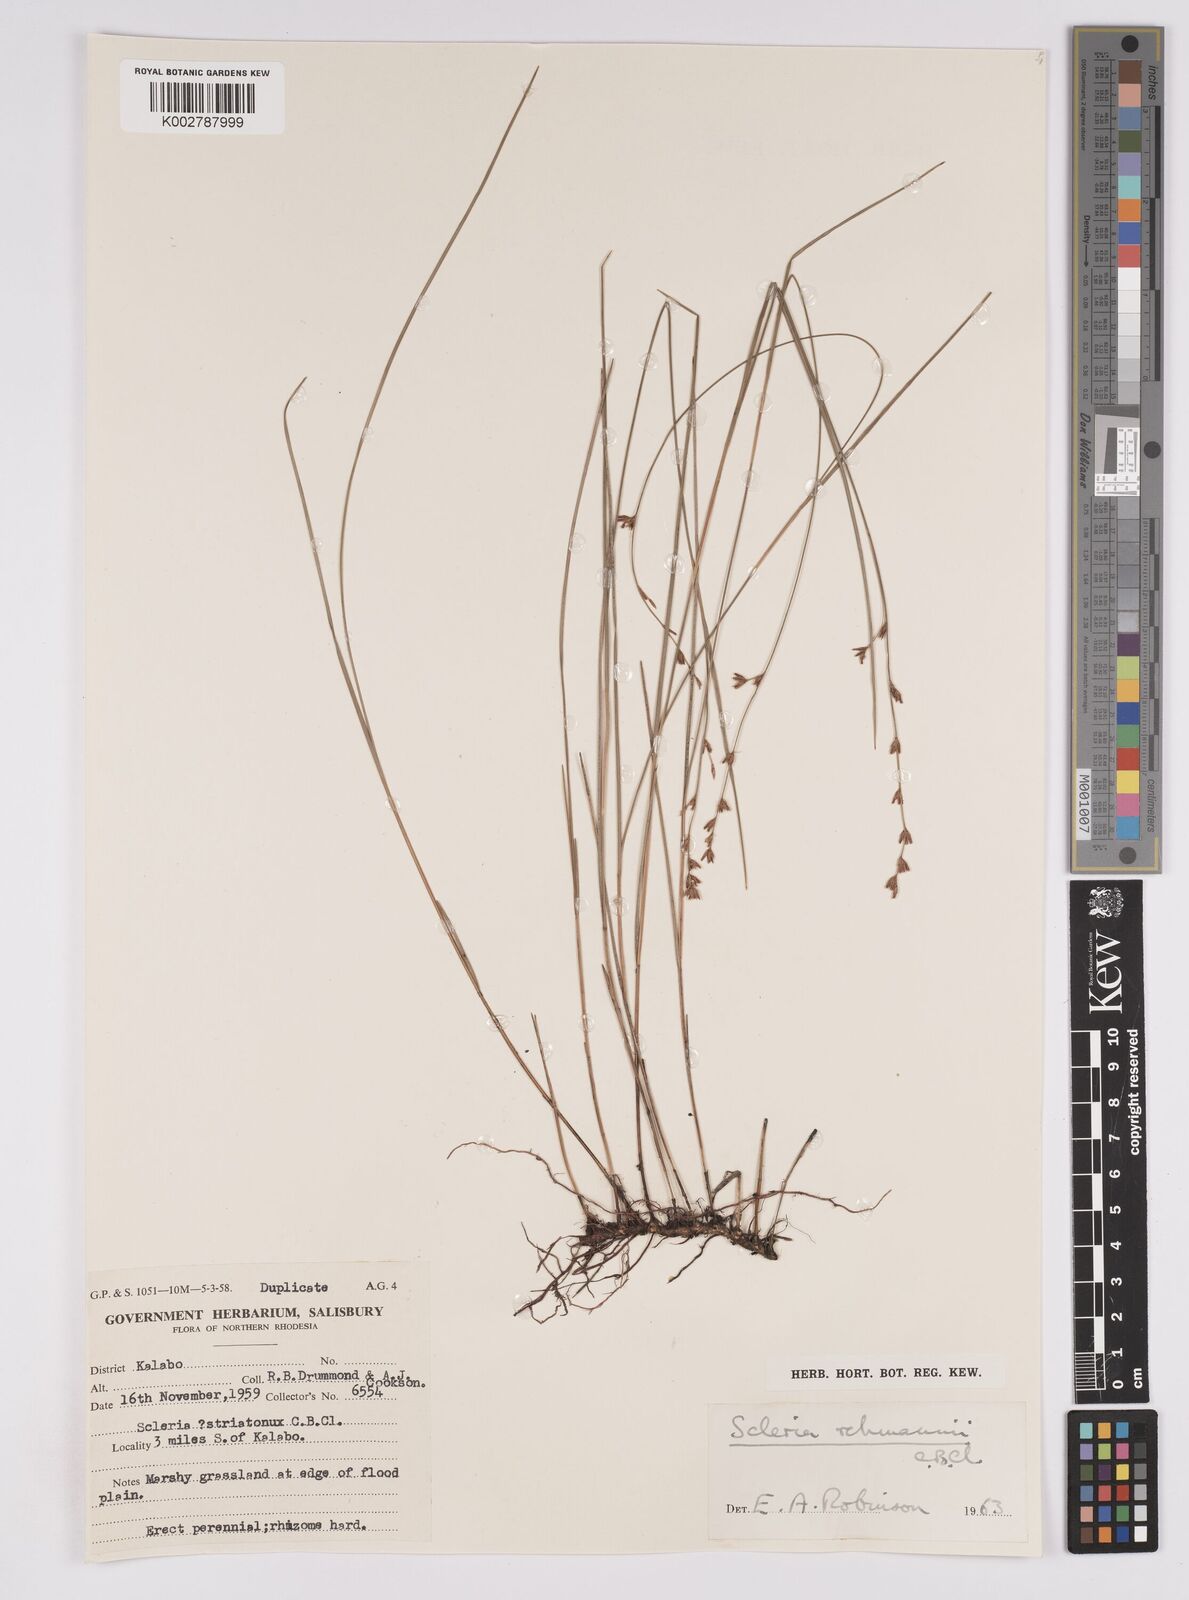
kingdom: Plantae
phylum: Tracheophyta
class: Liliopsida
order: Poales
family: Cyperaceae
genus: Scleria
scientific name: Scleria rehmannii
